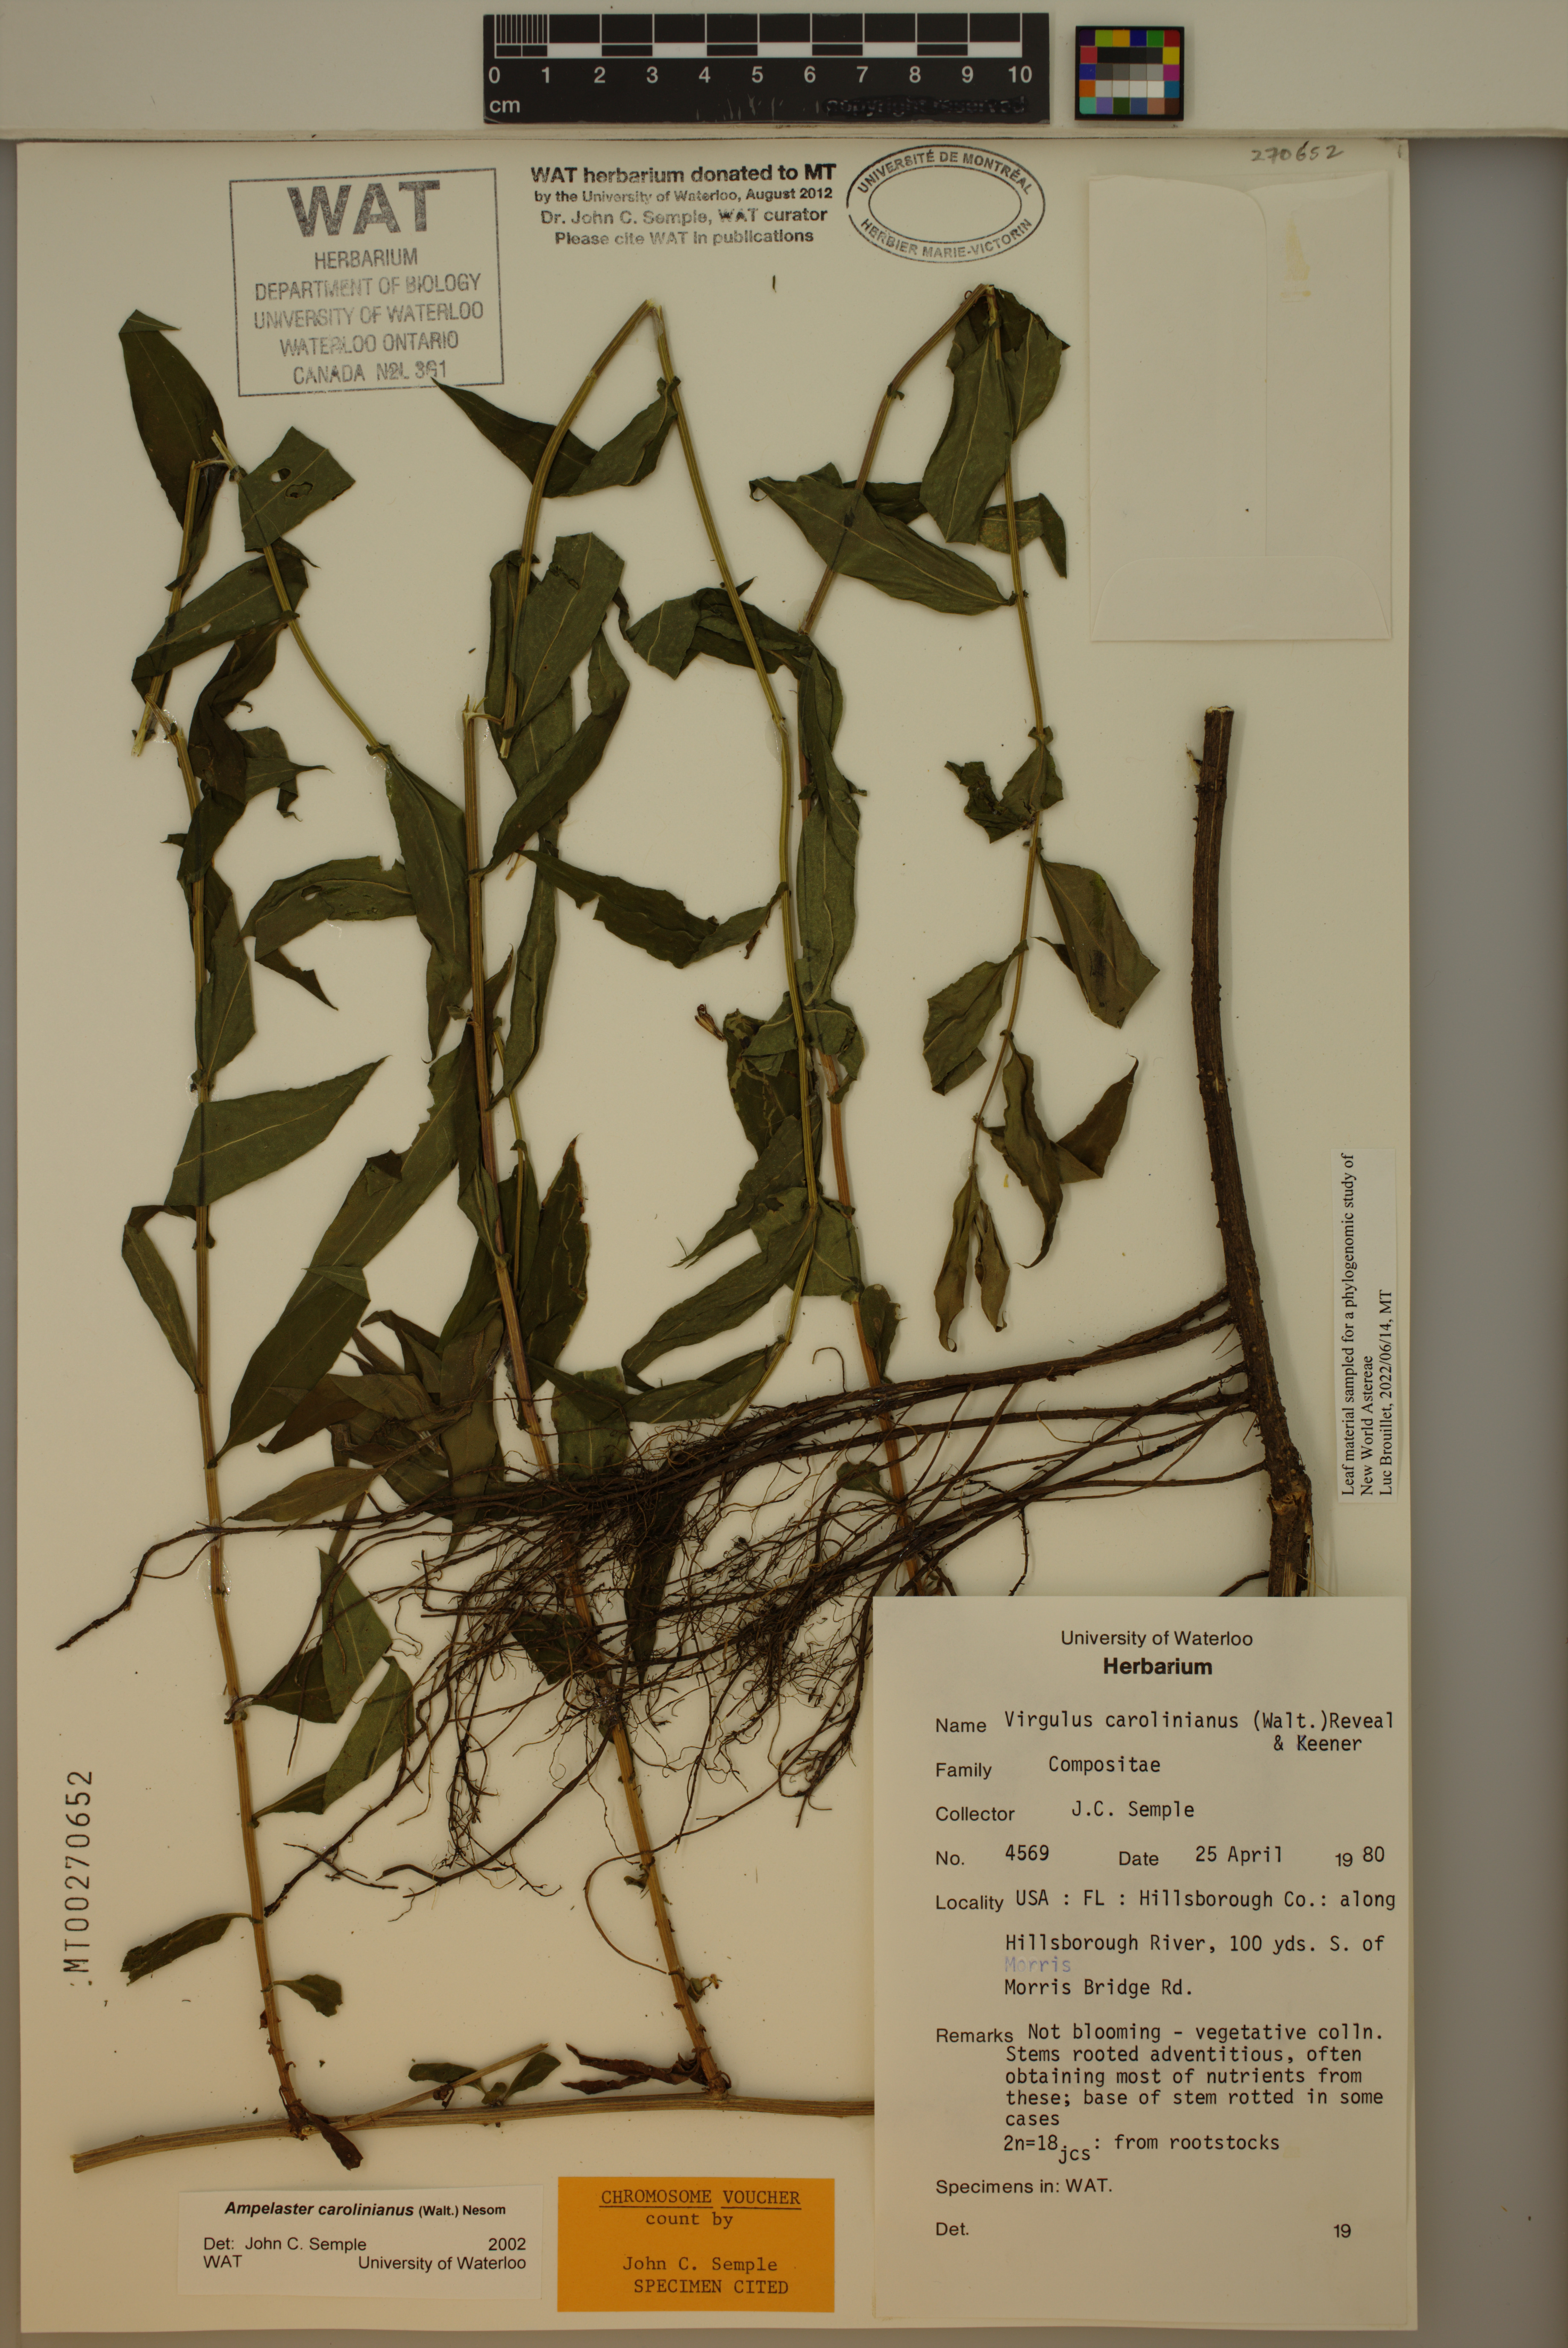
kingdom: Plantae
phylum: Tracheophyta
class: Magnoliopsida
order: Asterales
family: Asteraceae
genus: Ampelaster
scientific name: Ampelaster carolinianus
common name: Climbing aster
